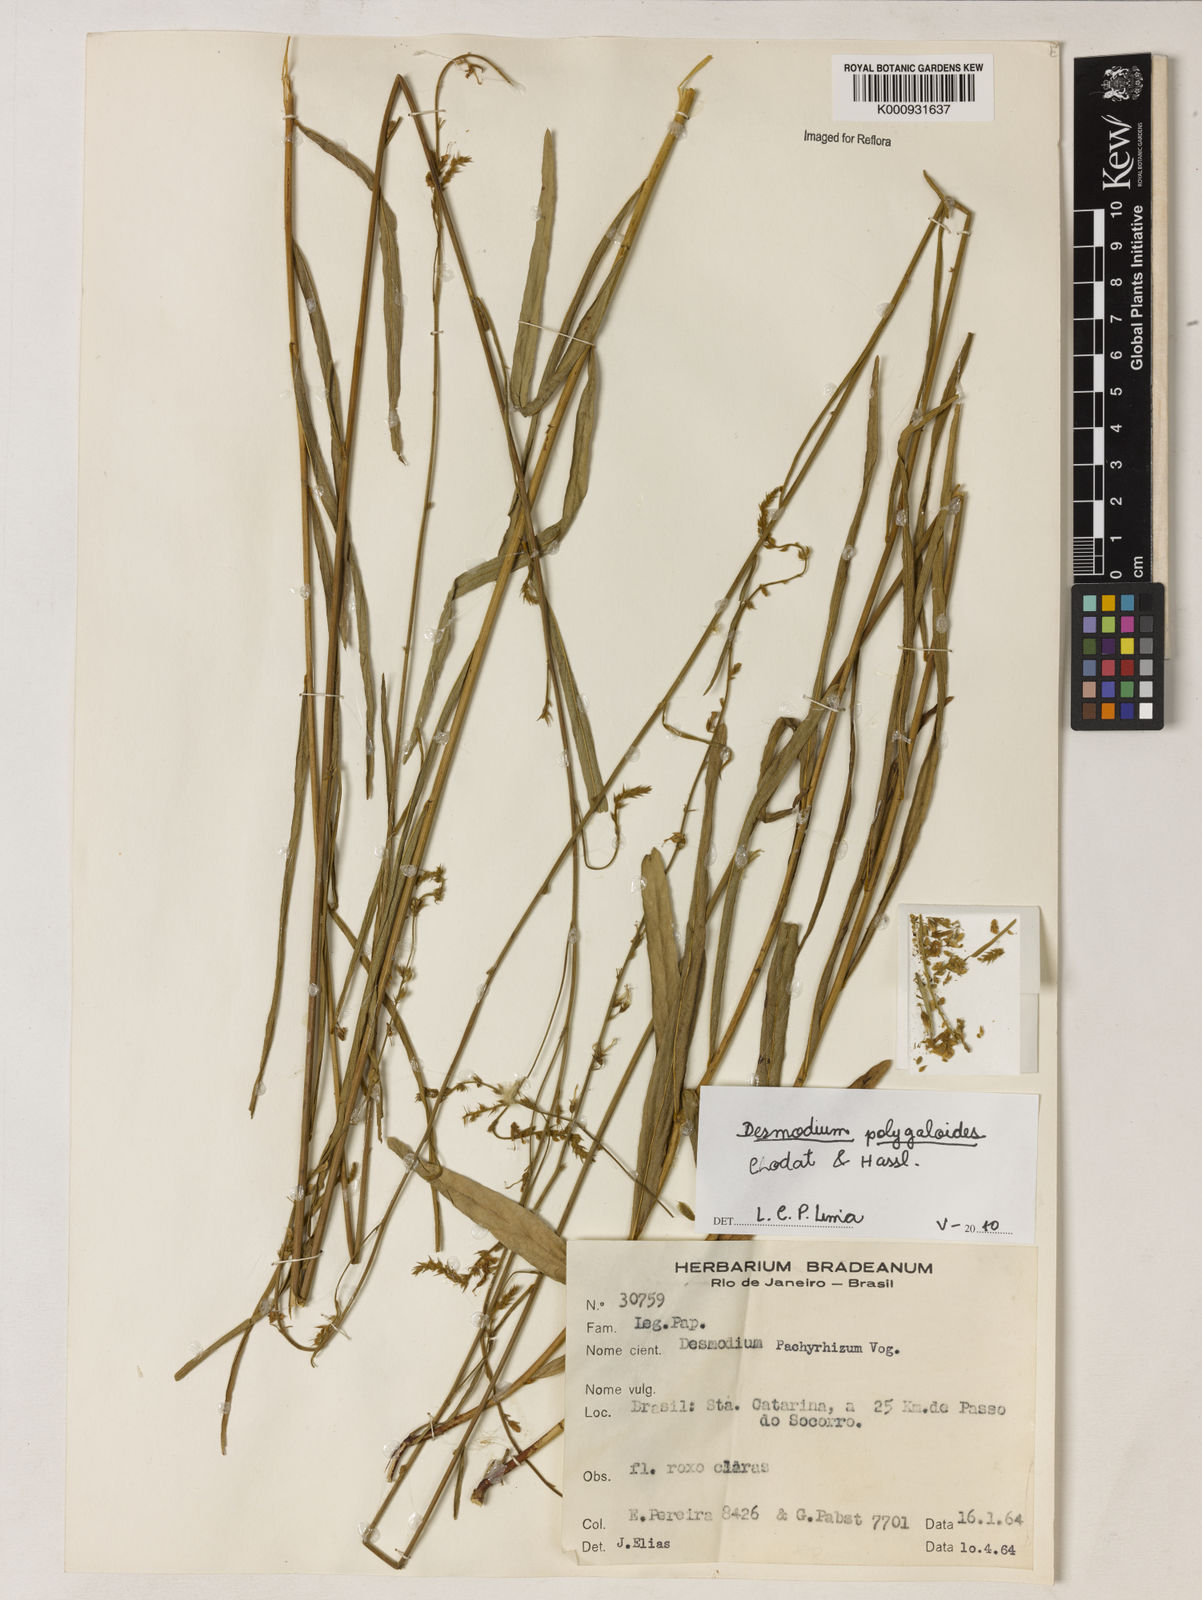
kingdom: Plantae
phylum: Tracheophyta
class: Magnoliopsida
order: Fabales
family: Fabaceae
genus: Desmodium
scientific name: Desmodium polygaloides
